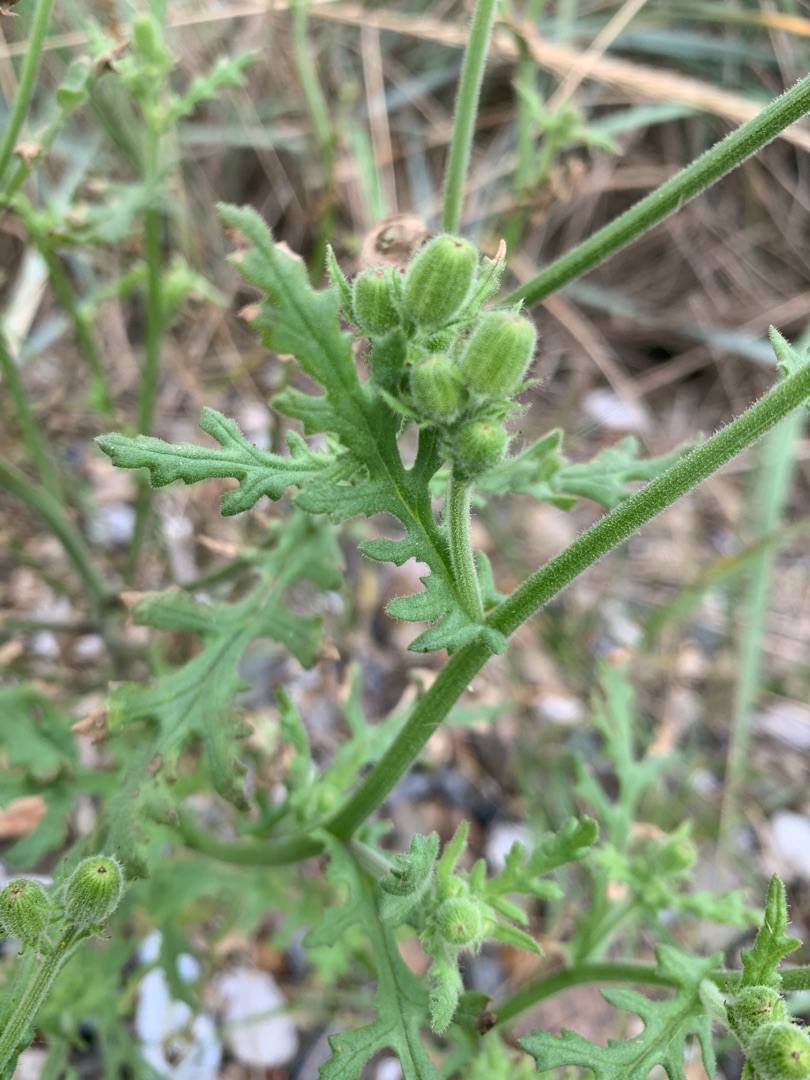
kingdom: Plantae
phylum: Tracheophyta
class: Magnoliopsida
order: Asterales
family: Asteraceae
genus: Senecio
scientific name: Senecio viscosus
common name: Klæbrig brandbæger
